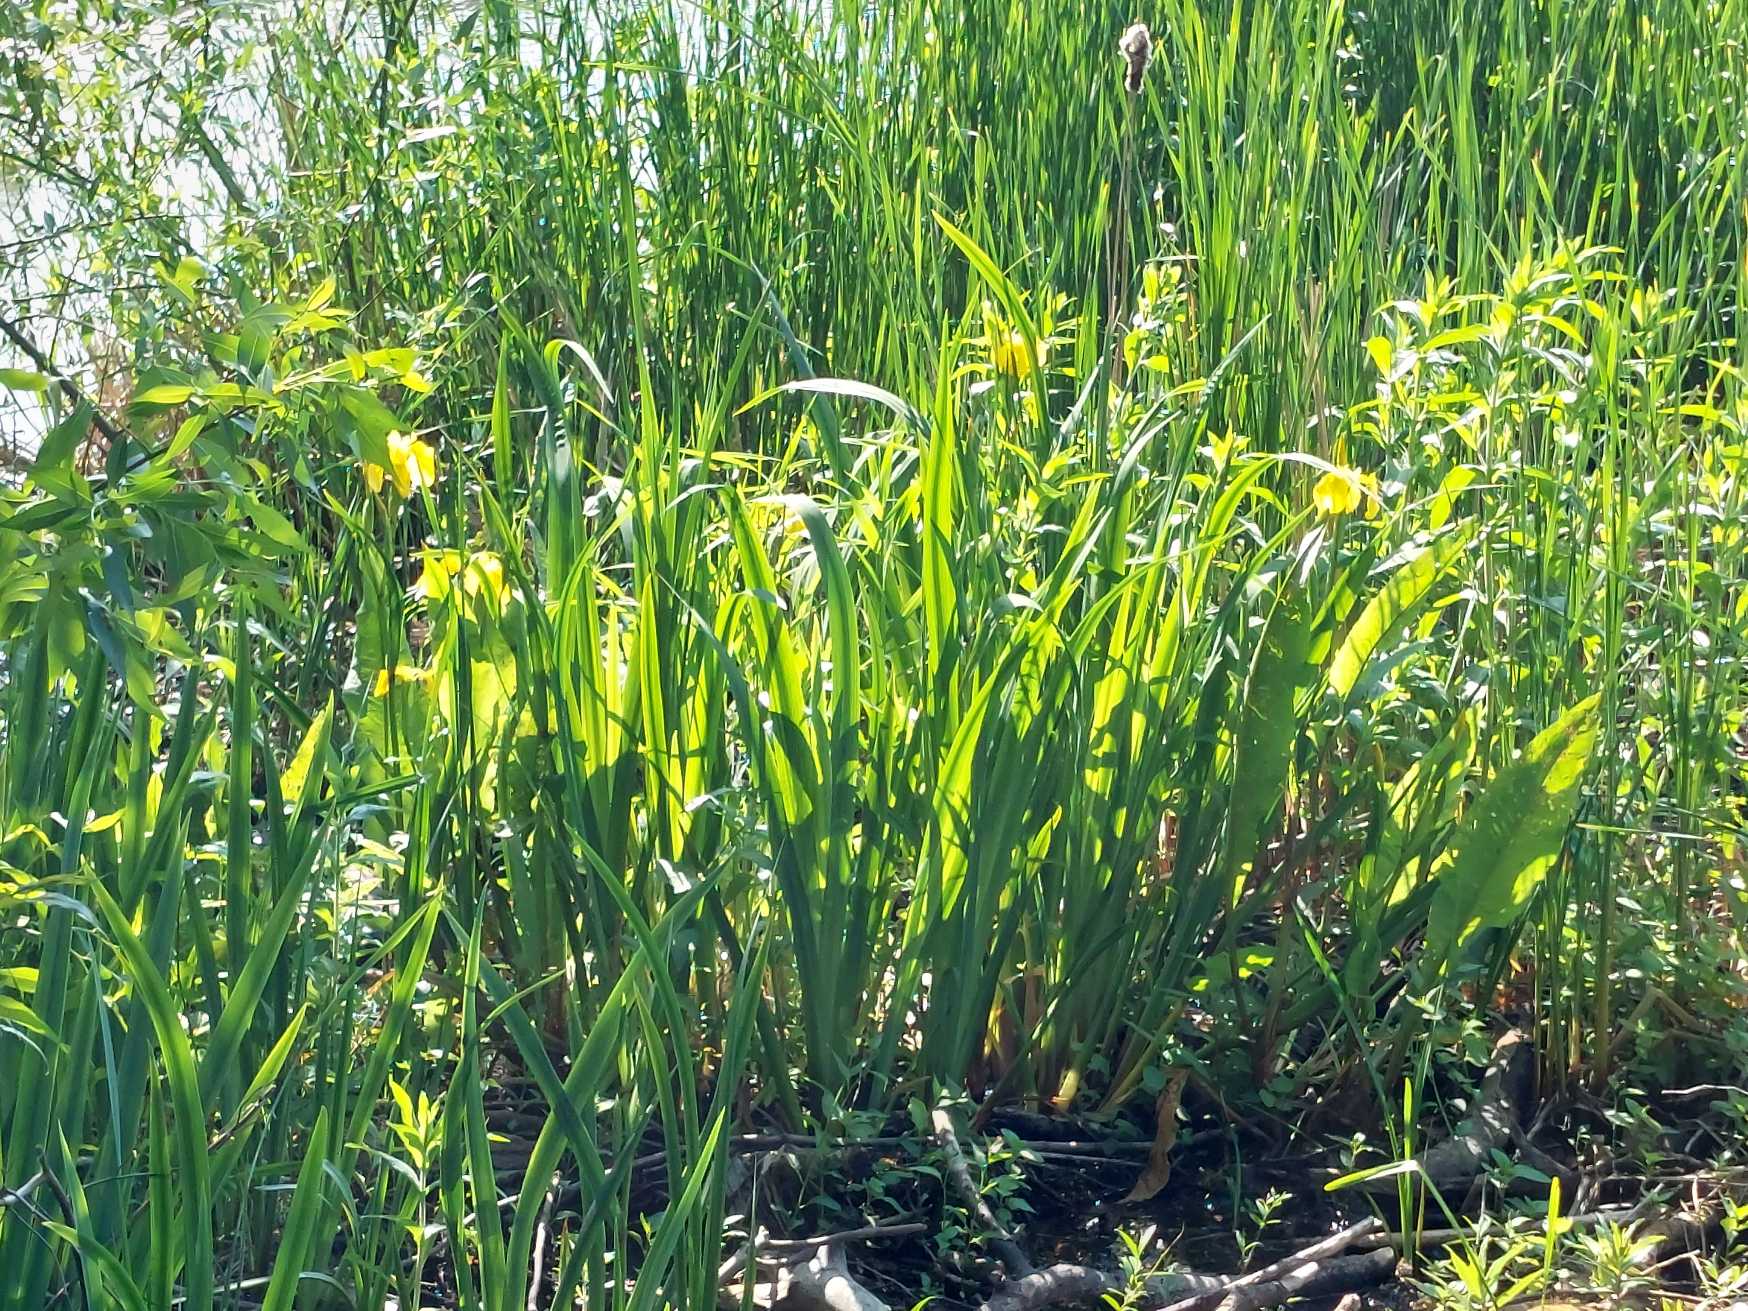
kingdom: Plantae
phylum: Tracheophyta
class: Liliopsida
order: Asparagales
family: Iridaceae
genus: Iris
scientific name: Iris pseudacorus
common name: Gul iris
